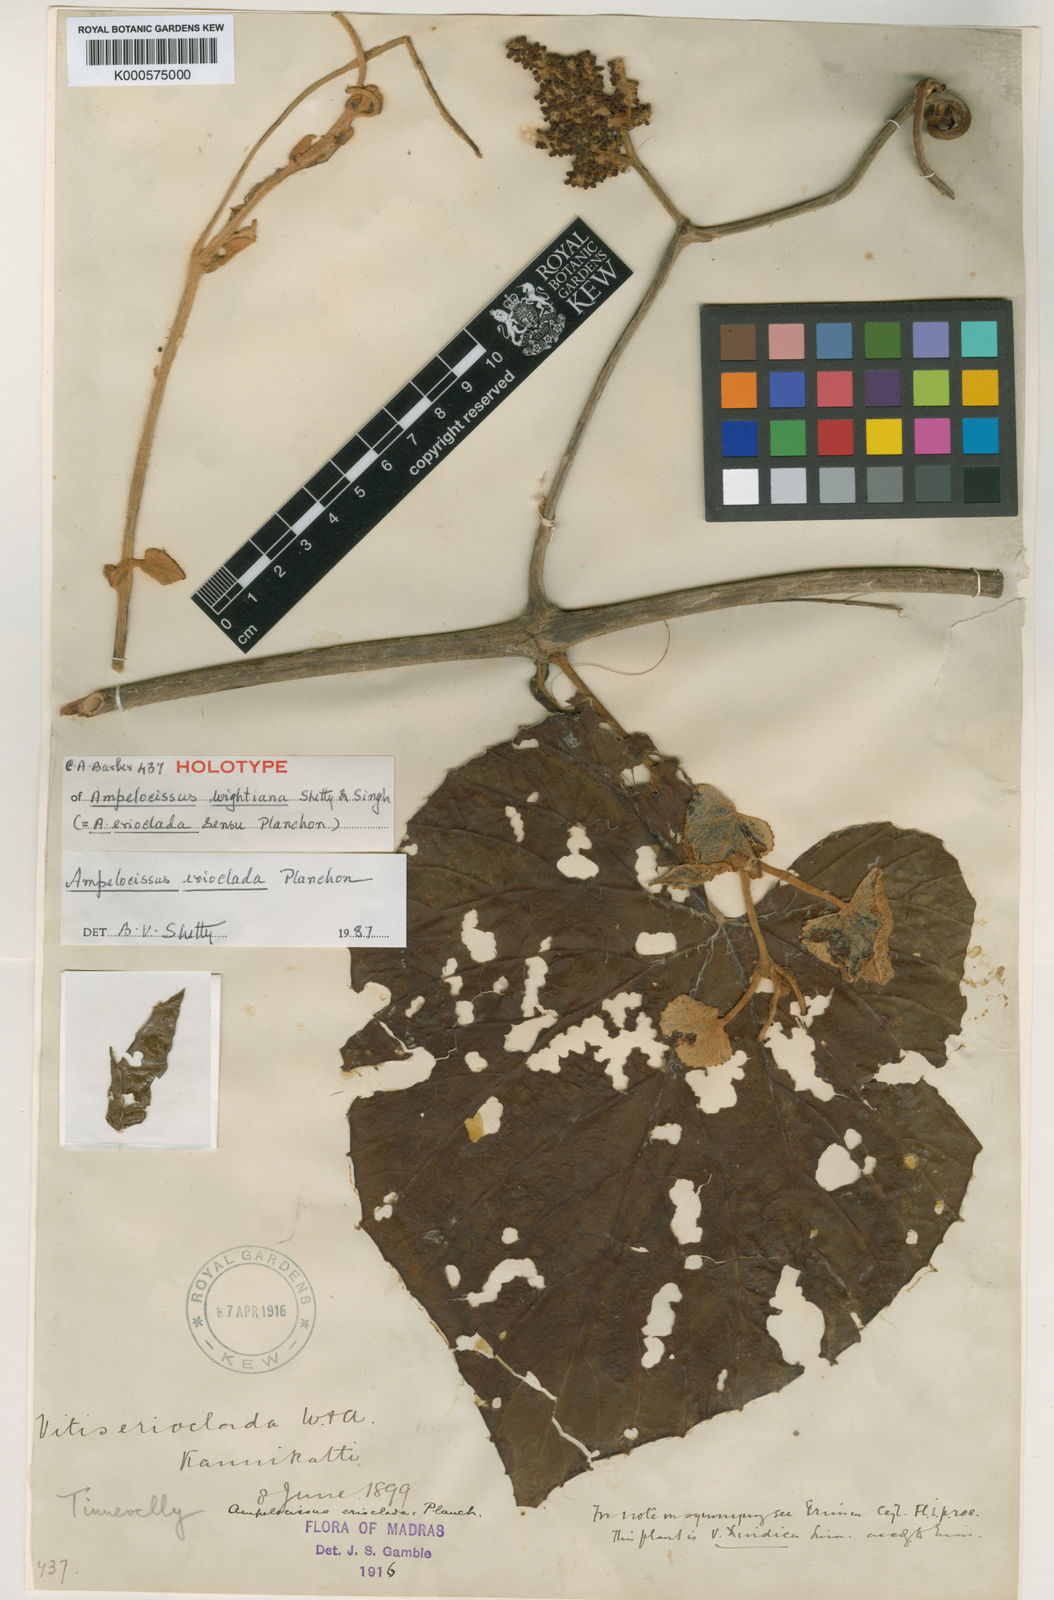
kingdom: Plantae
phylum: Tracheophyta
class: Magnoliopsida
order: Vitales
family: Vitaceae
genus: Ampelocissus
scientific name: Ampelocissus wightiana
